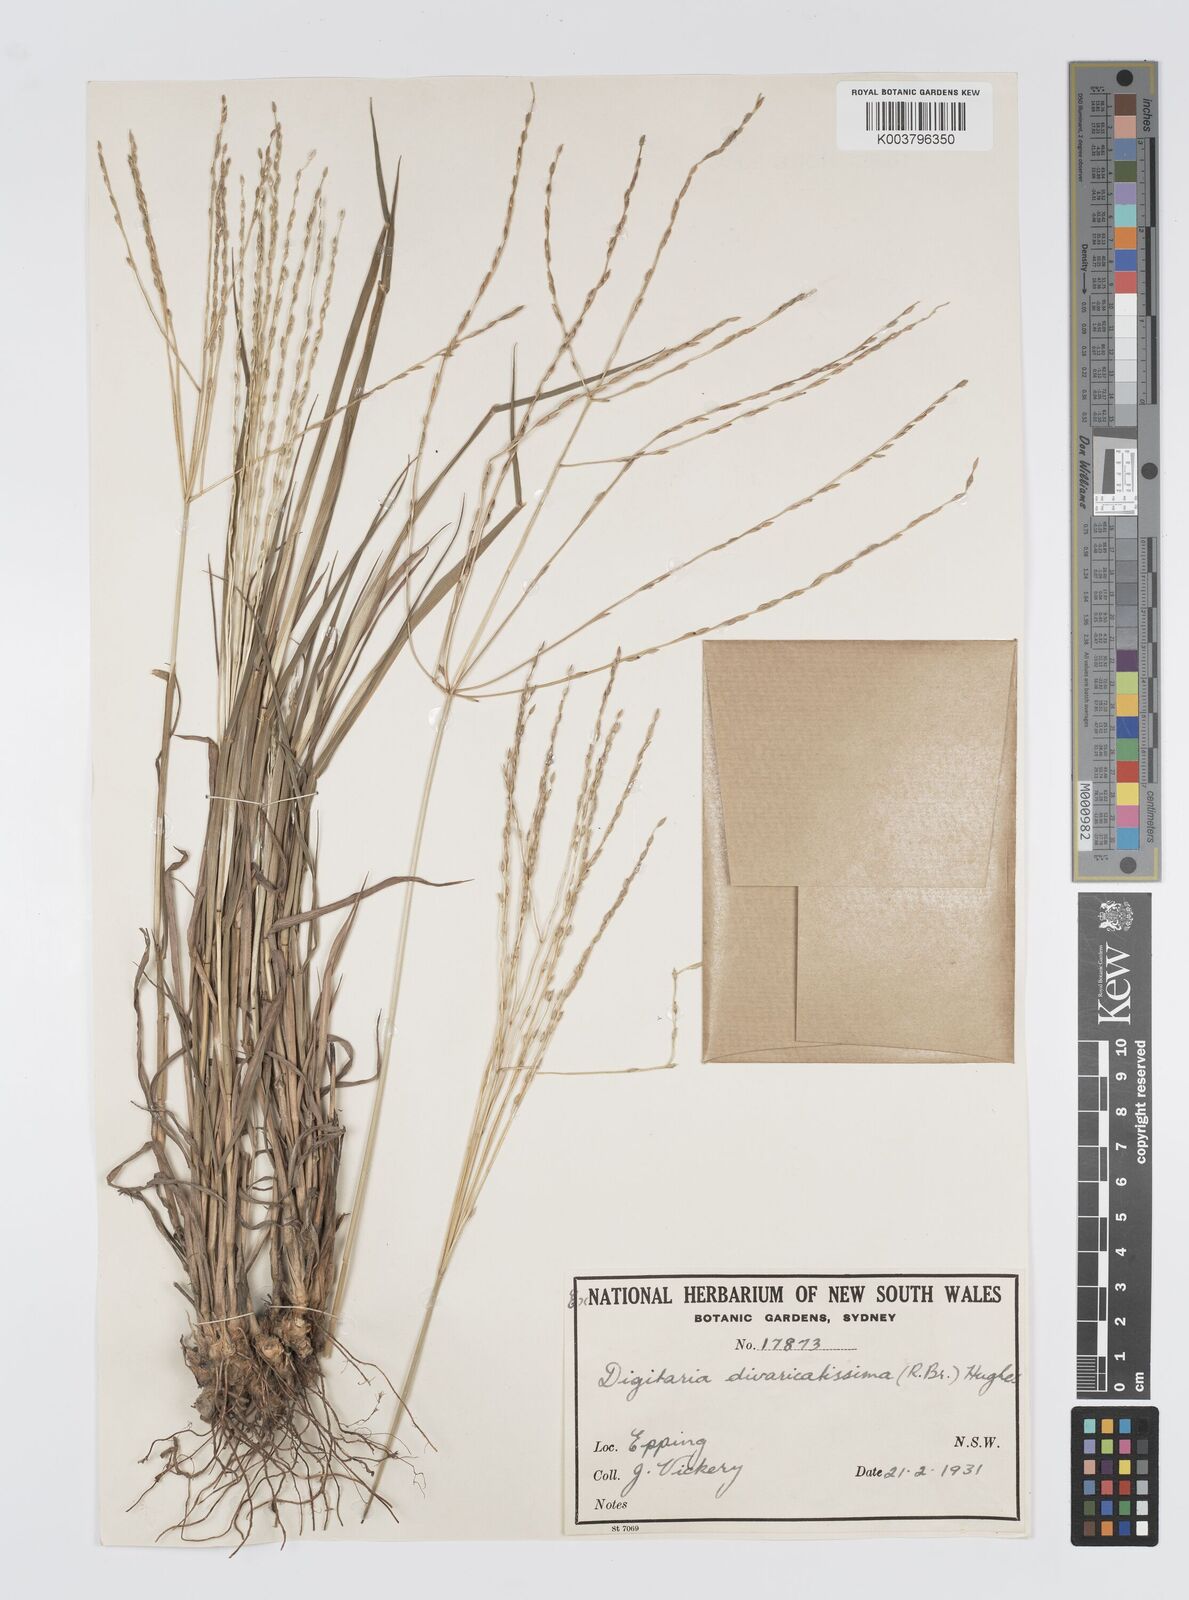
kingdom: Plantae
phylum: Tracheophyta
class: Liliopsida
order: Poales
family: Poaceae
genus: Digitaria
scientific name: Digitaria divaricatissima
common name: Crabgrass
